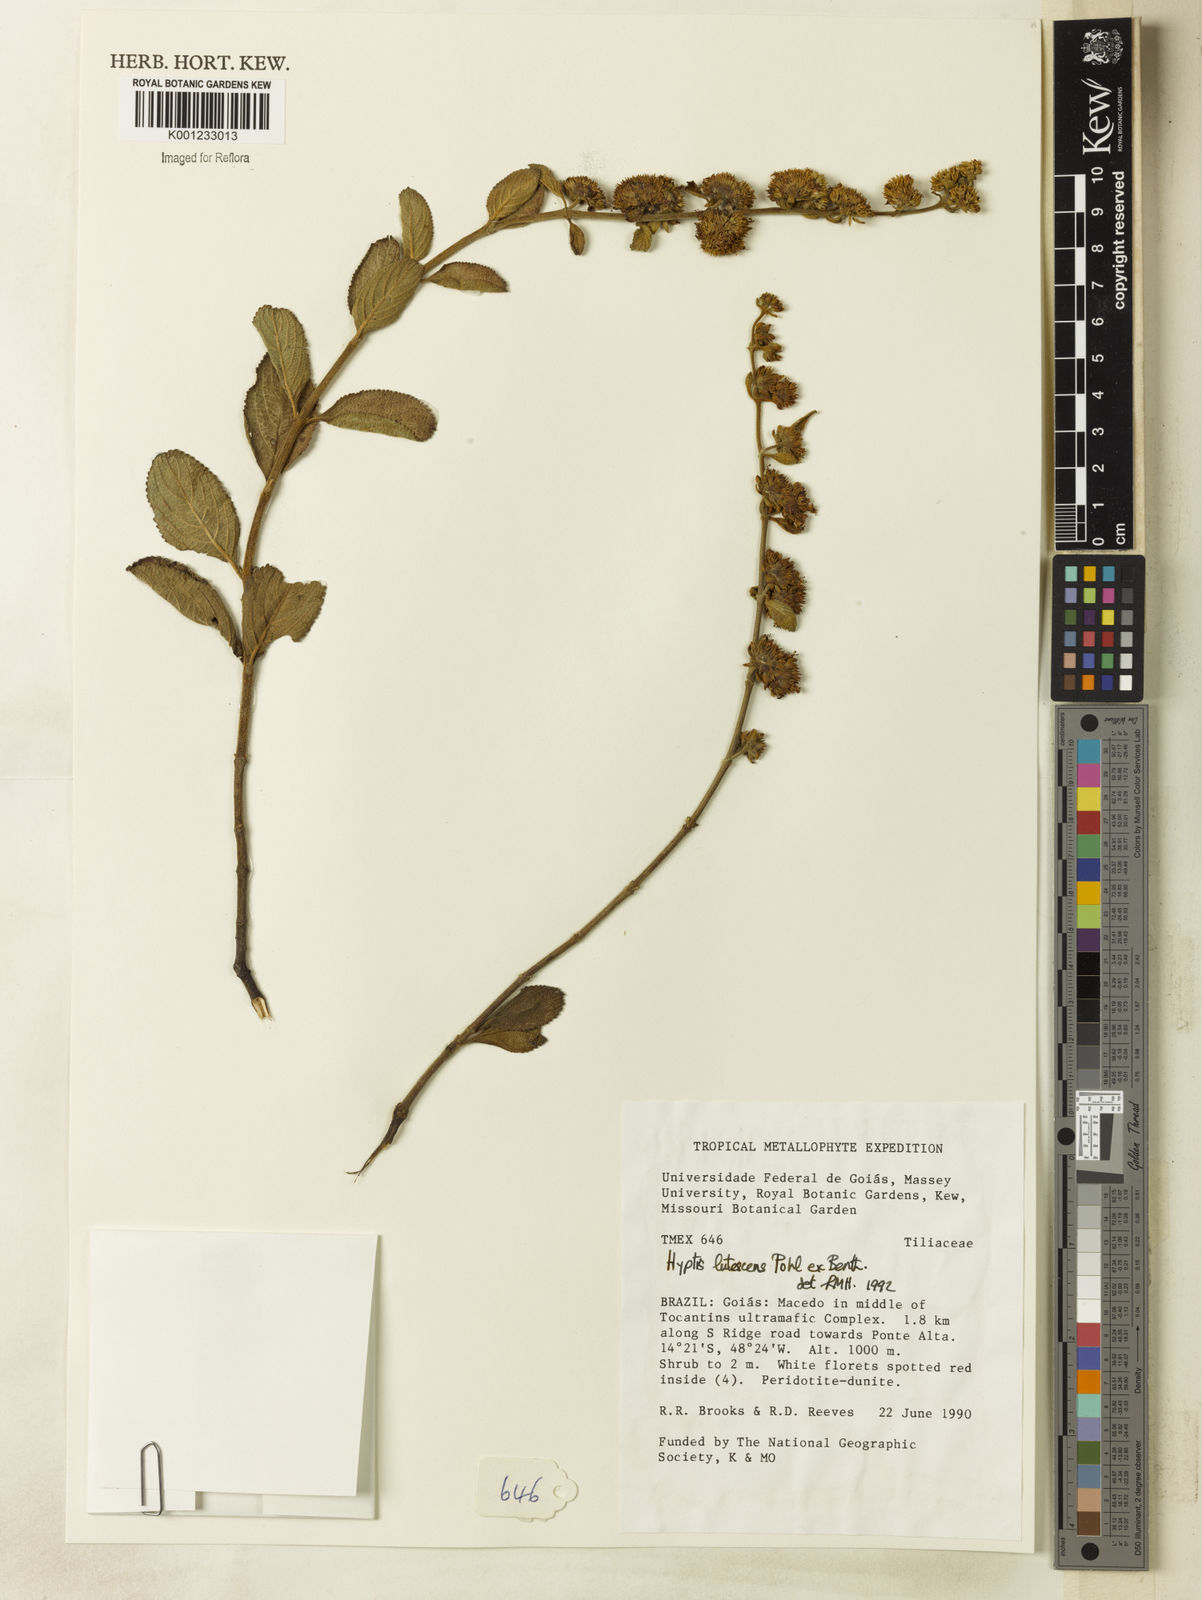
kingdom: Plantae
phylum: Tracheophyta
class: Magnoliopsida
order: Lamiales
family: Lamiaceae
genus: Hyptis
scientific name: Hyptis lutescens
